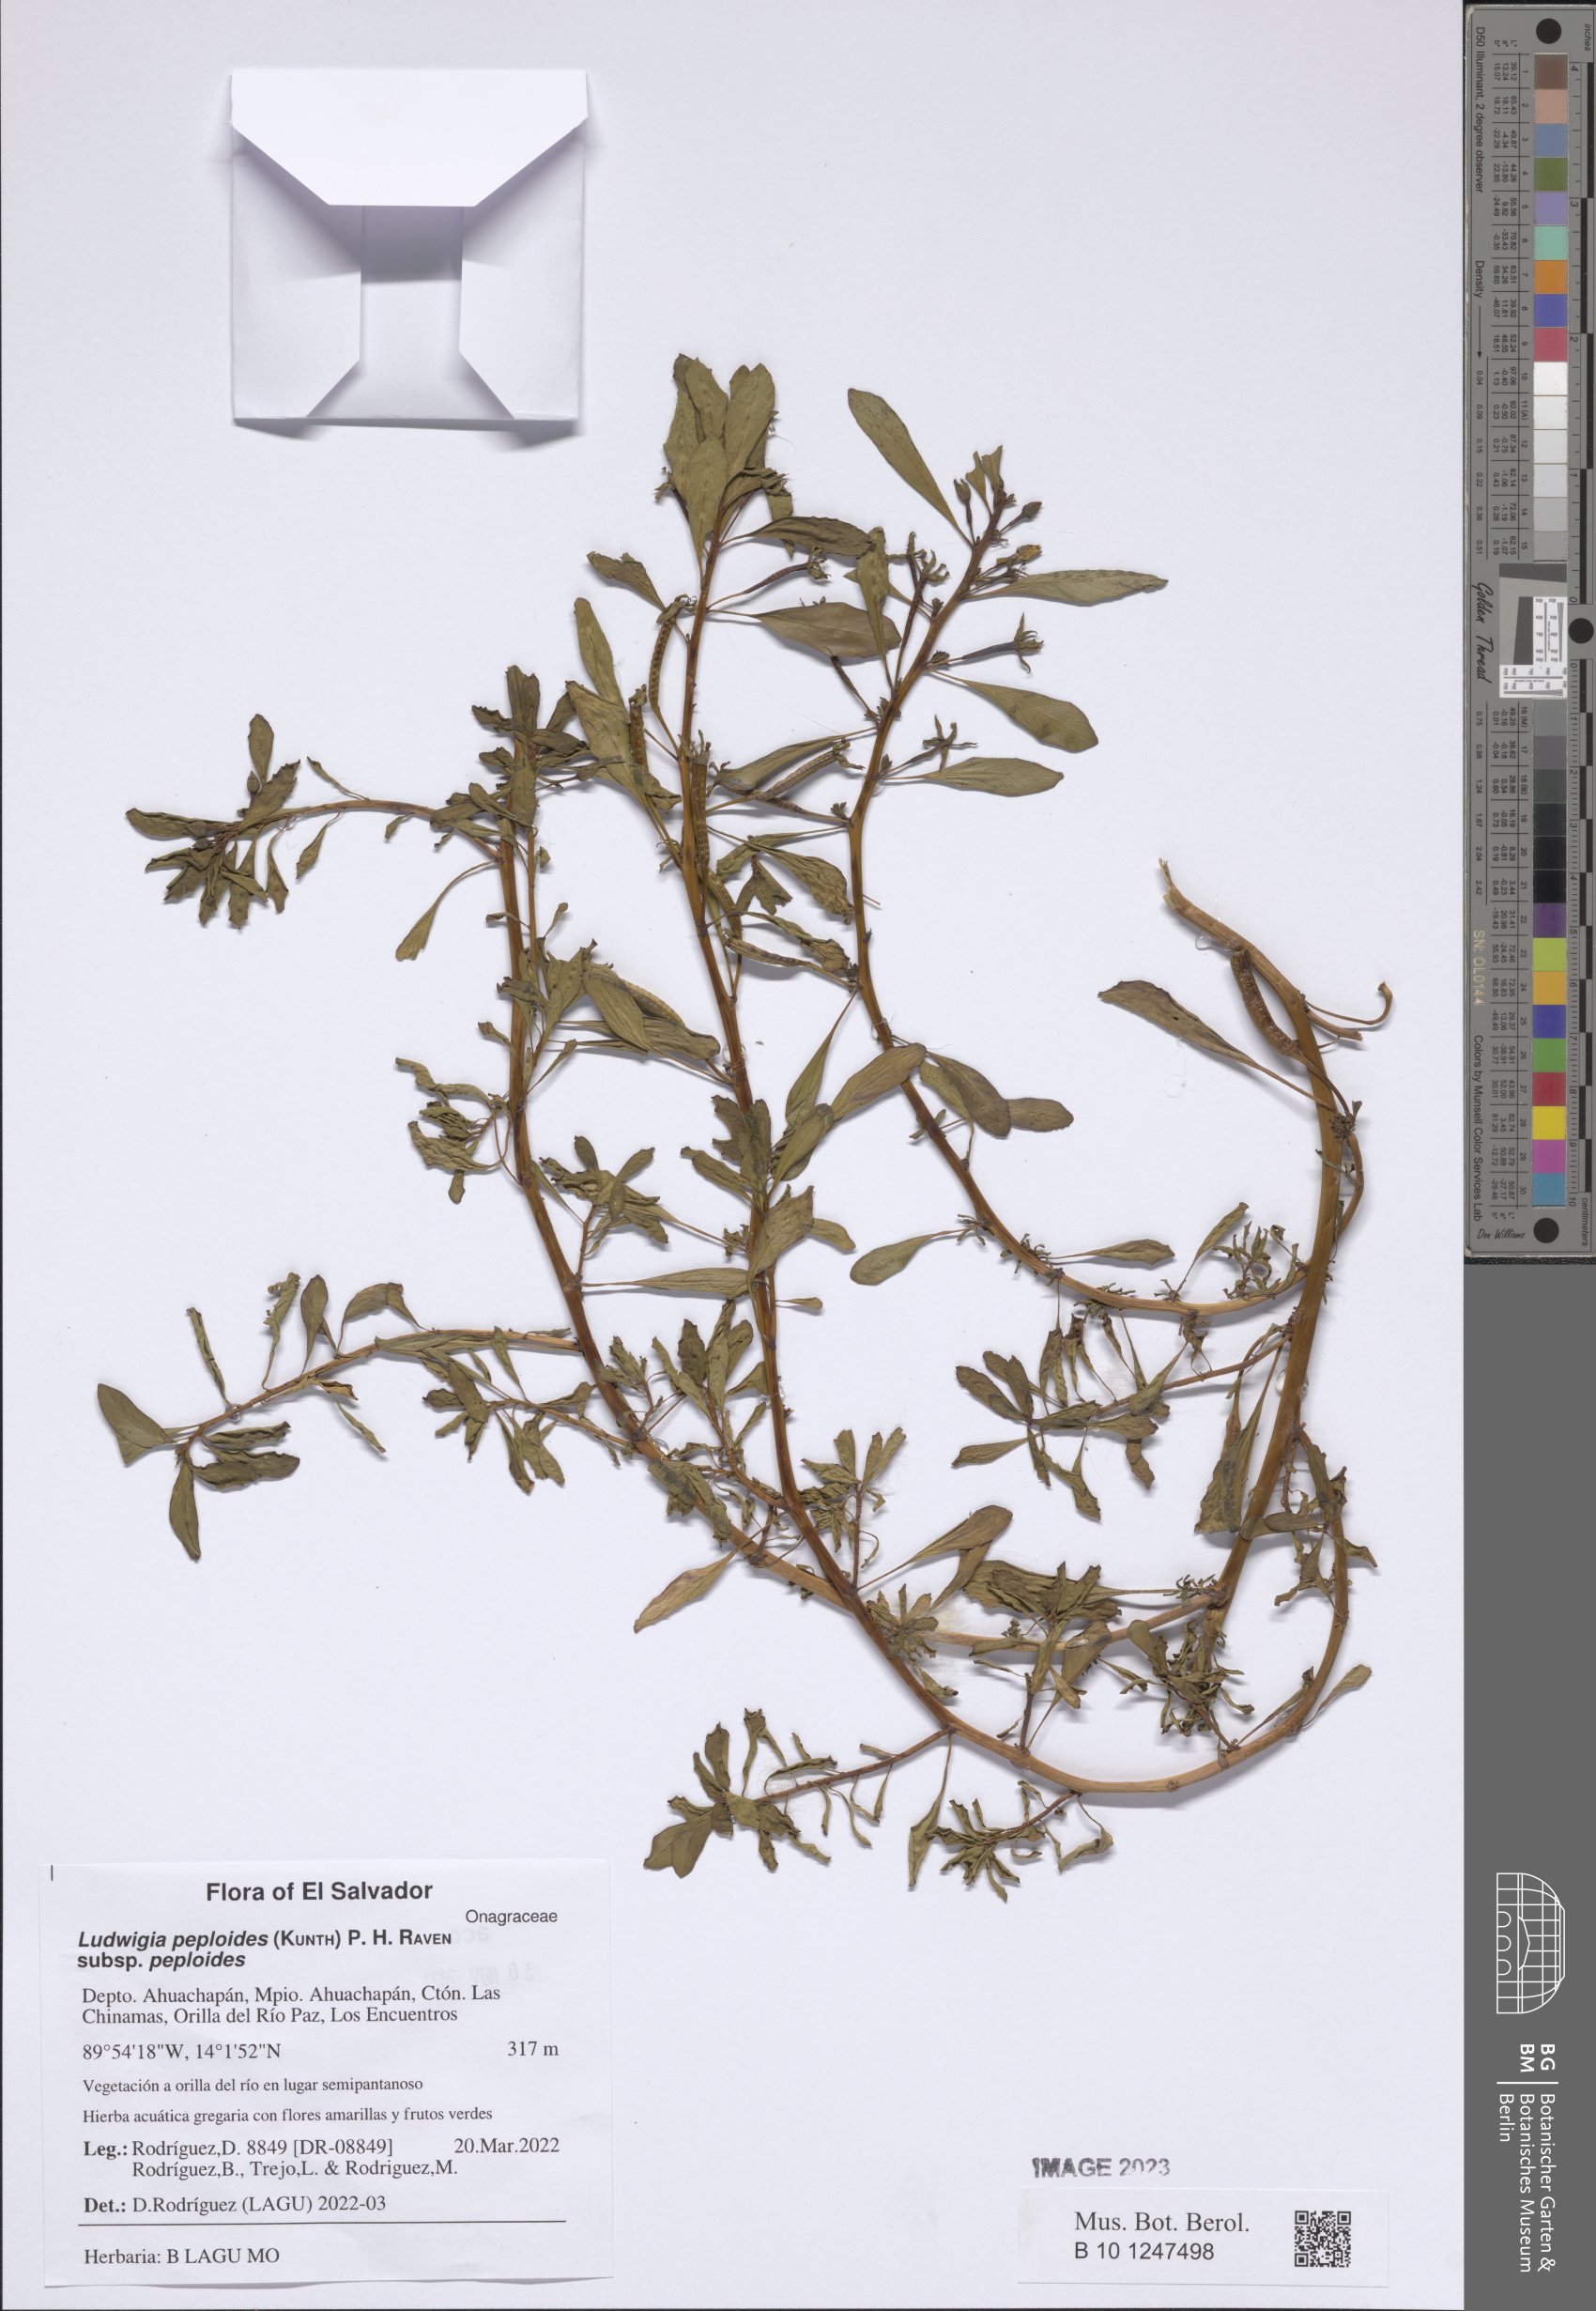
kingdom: Plantae
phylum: Tracheophyta
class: Magnoliopsida
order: Myrtales
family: Onagraceae
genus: Ludwigia
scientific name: Ludwigia peploides
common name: Floating primrose-willow
